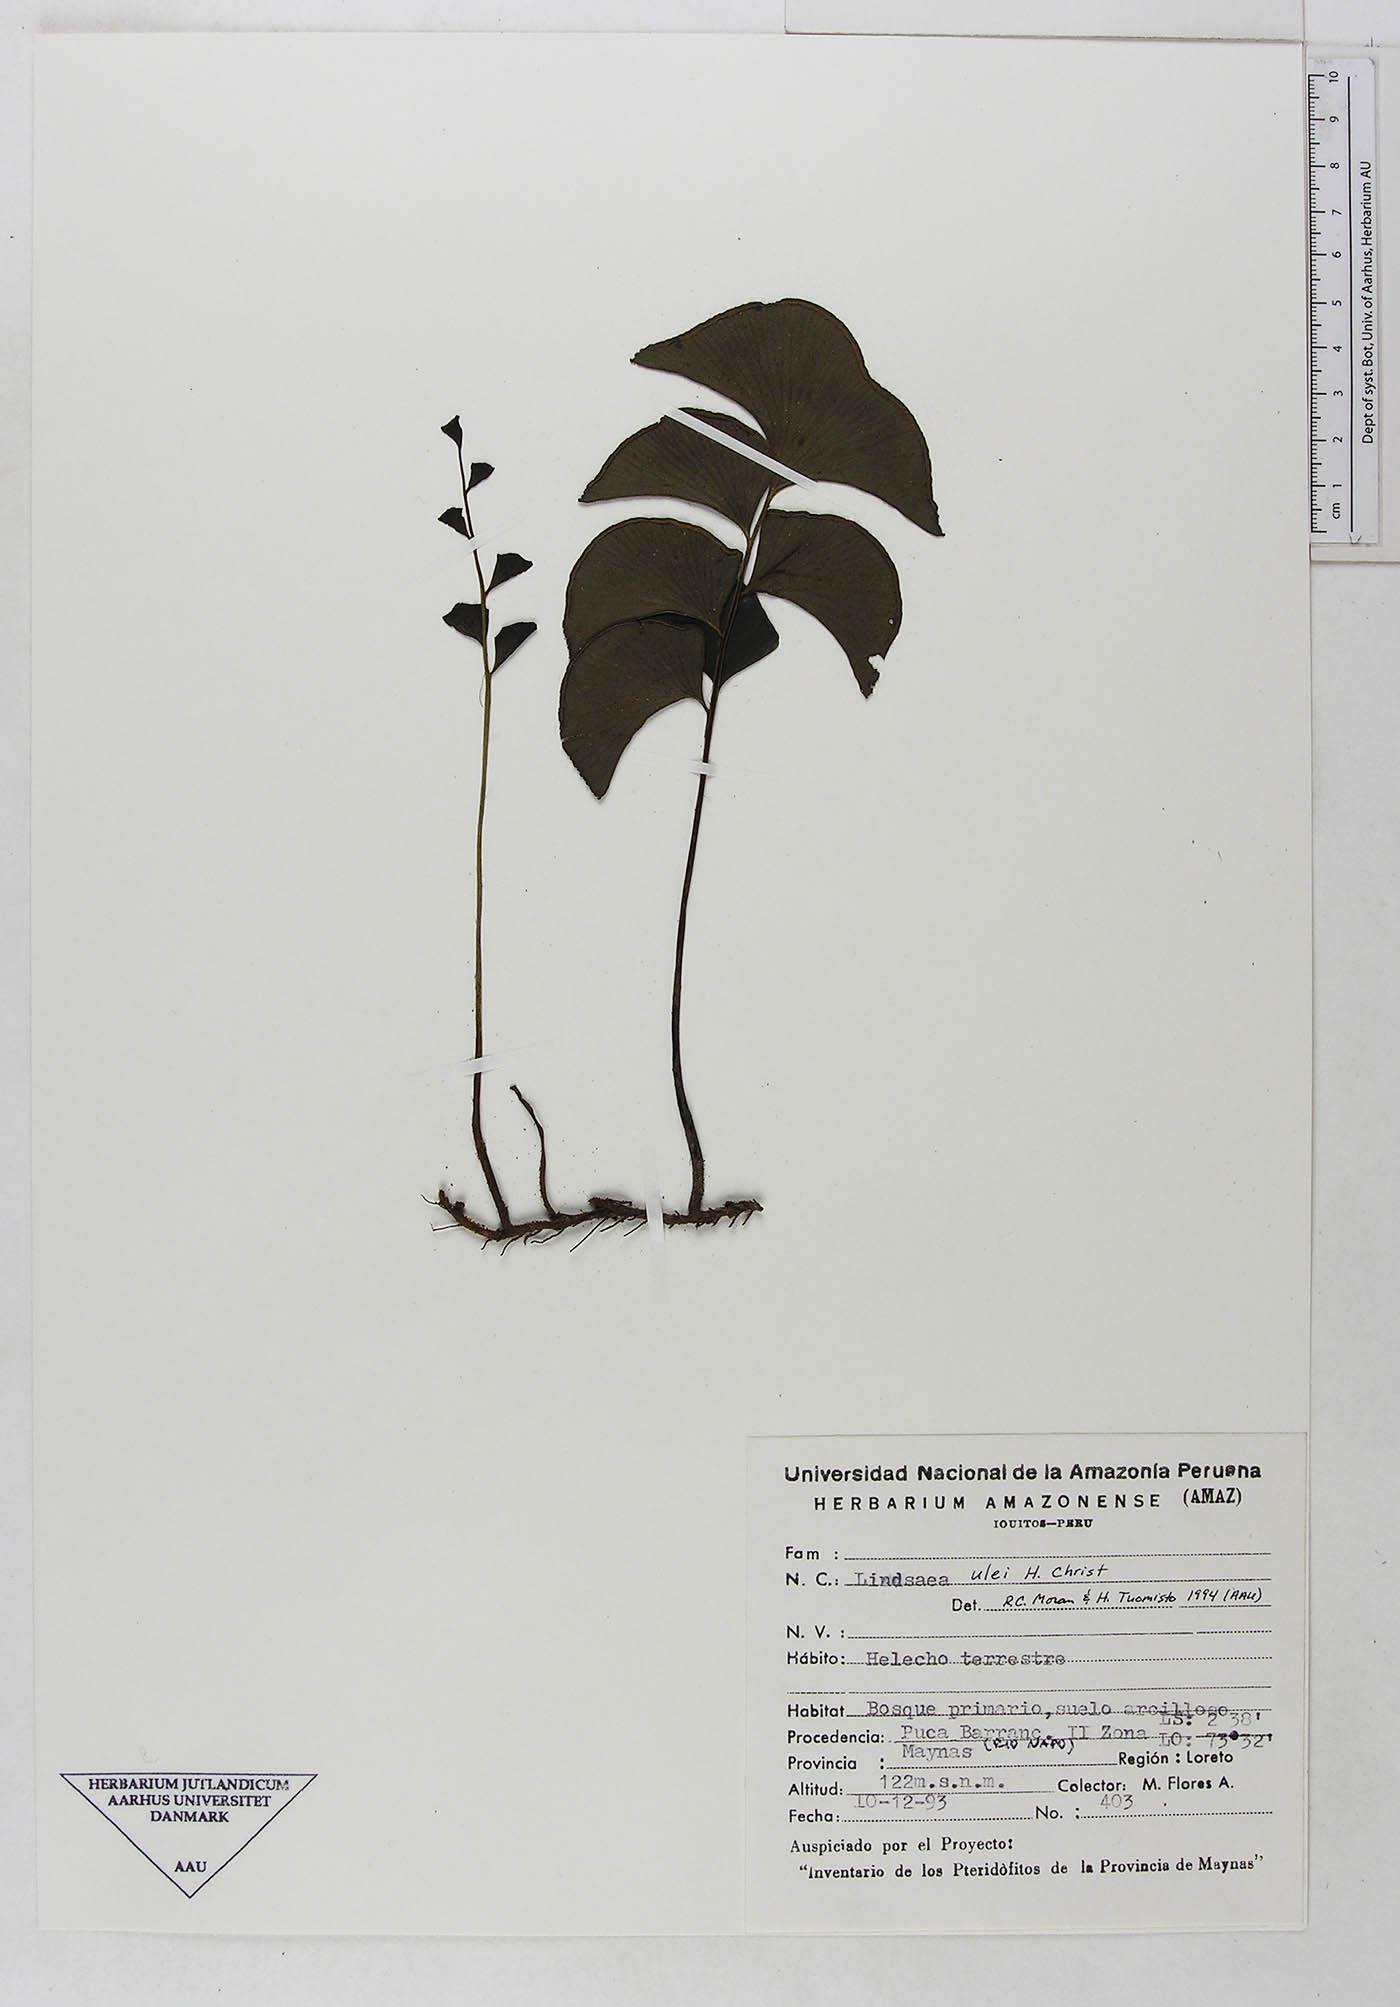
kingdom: Plantae
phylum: Tracheophyta
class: Polypodiopsida
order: Polypodiales
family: Lindsaeaceae
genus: Lindsaea
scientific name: Lindsaea ulei
